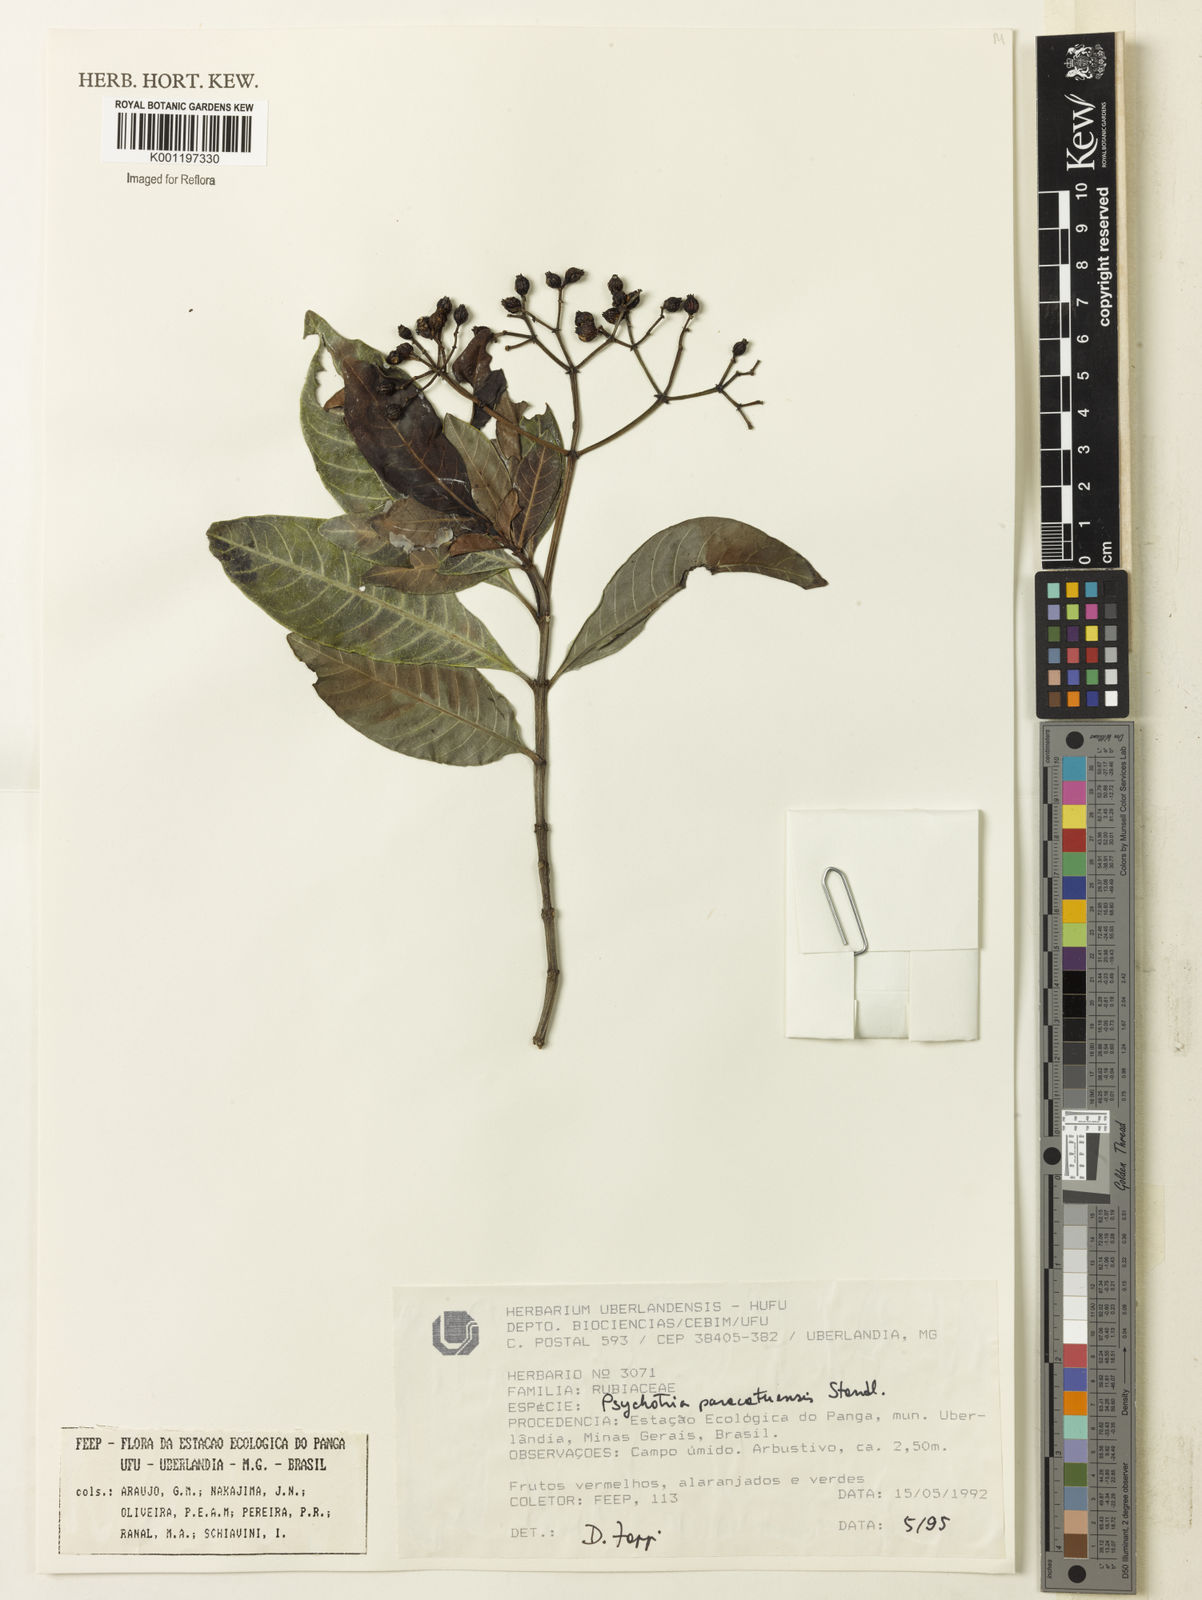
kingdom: Plantae
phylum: Tracheophyta
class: Magnoliopsida
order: Gentianales
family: Rubiaceae
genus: Psychotria
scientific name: Psychotria anceps
